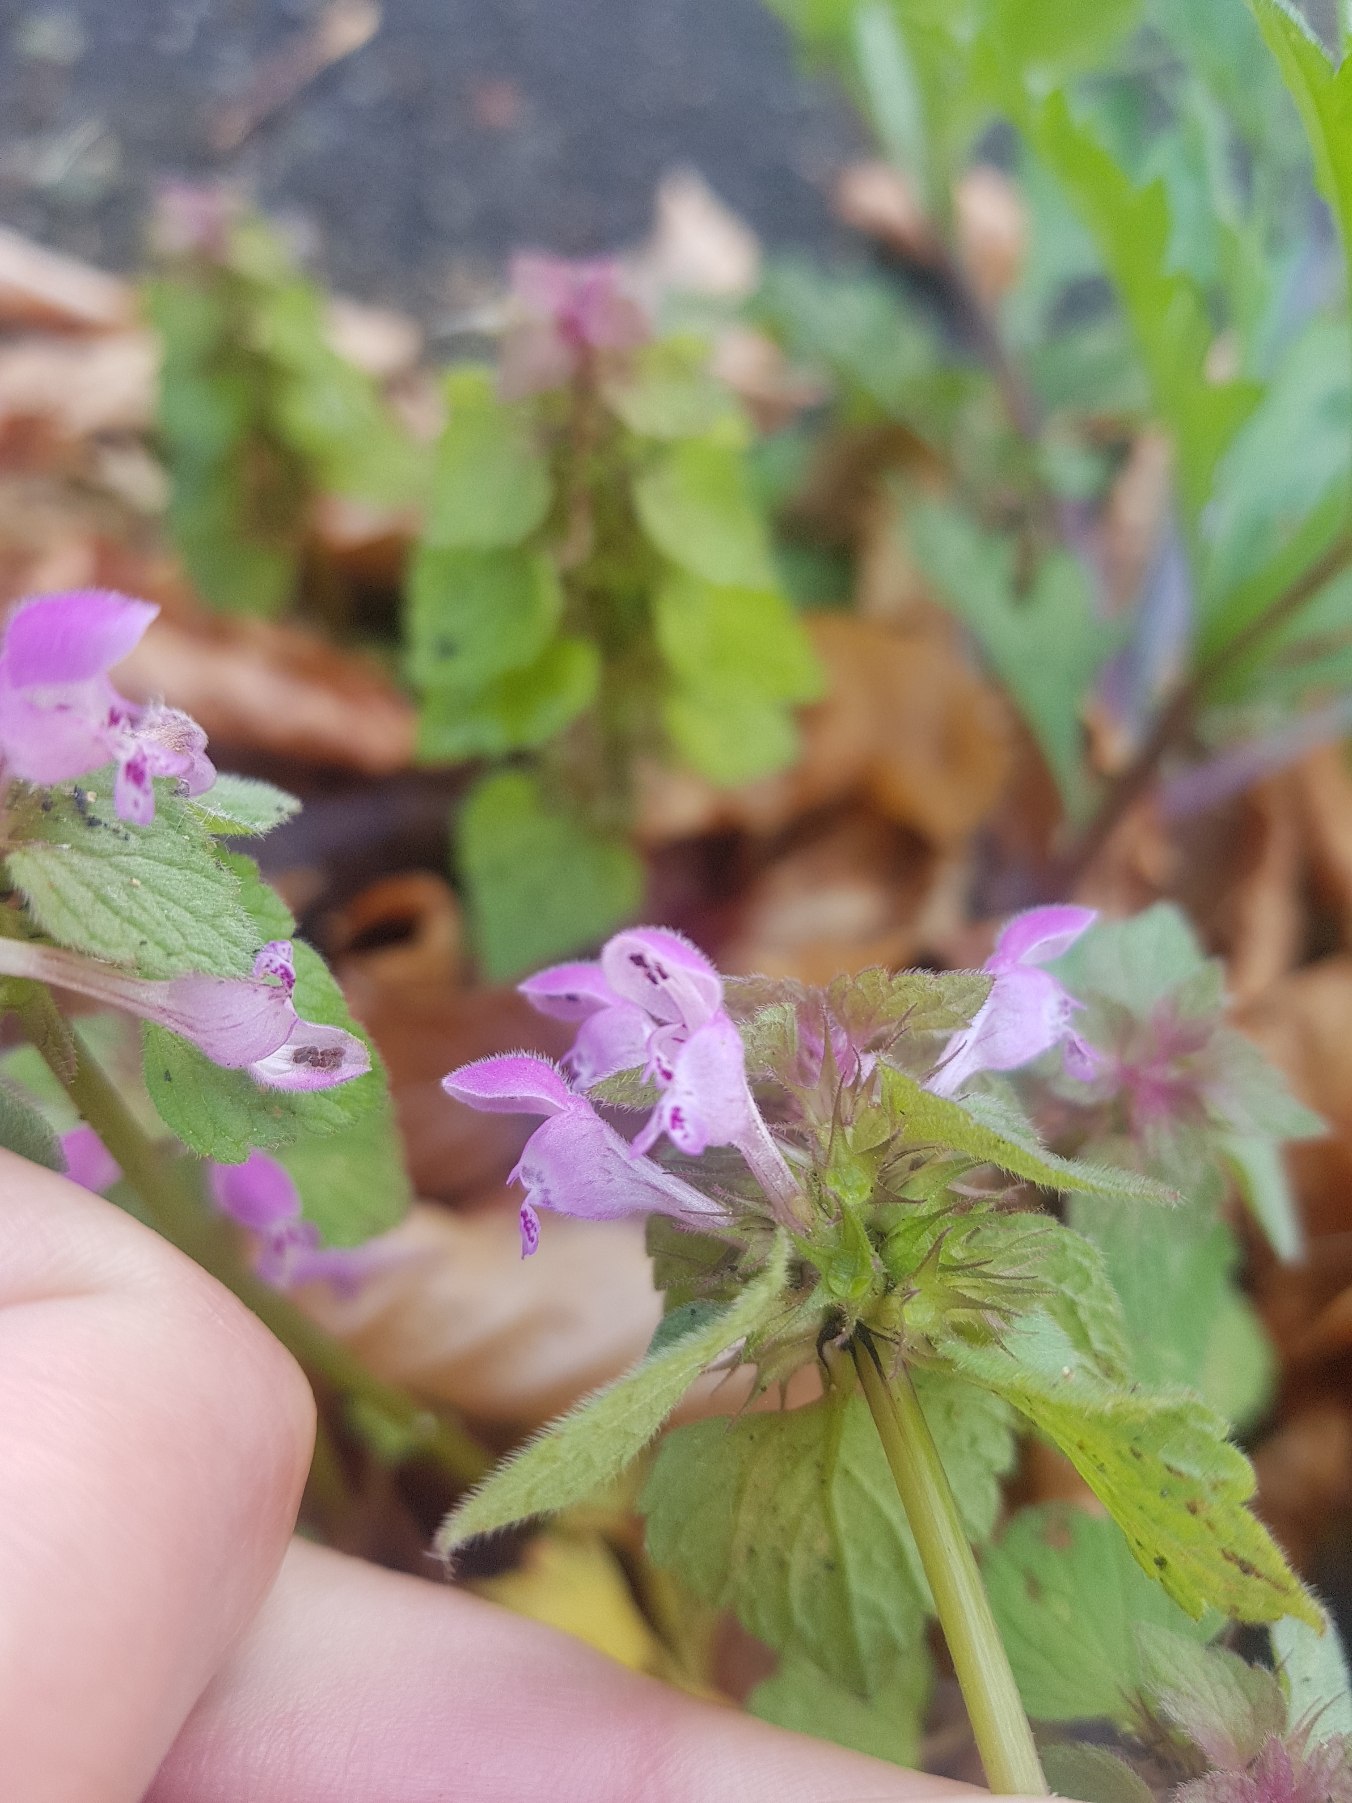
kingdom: Plantae
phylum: Tracheophyta
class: Magnoliopsida
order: Lamiales
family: Lamiaceae
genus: Lamium
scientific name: Lamium purpureum
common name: Rød tvetand
